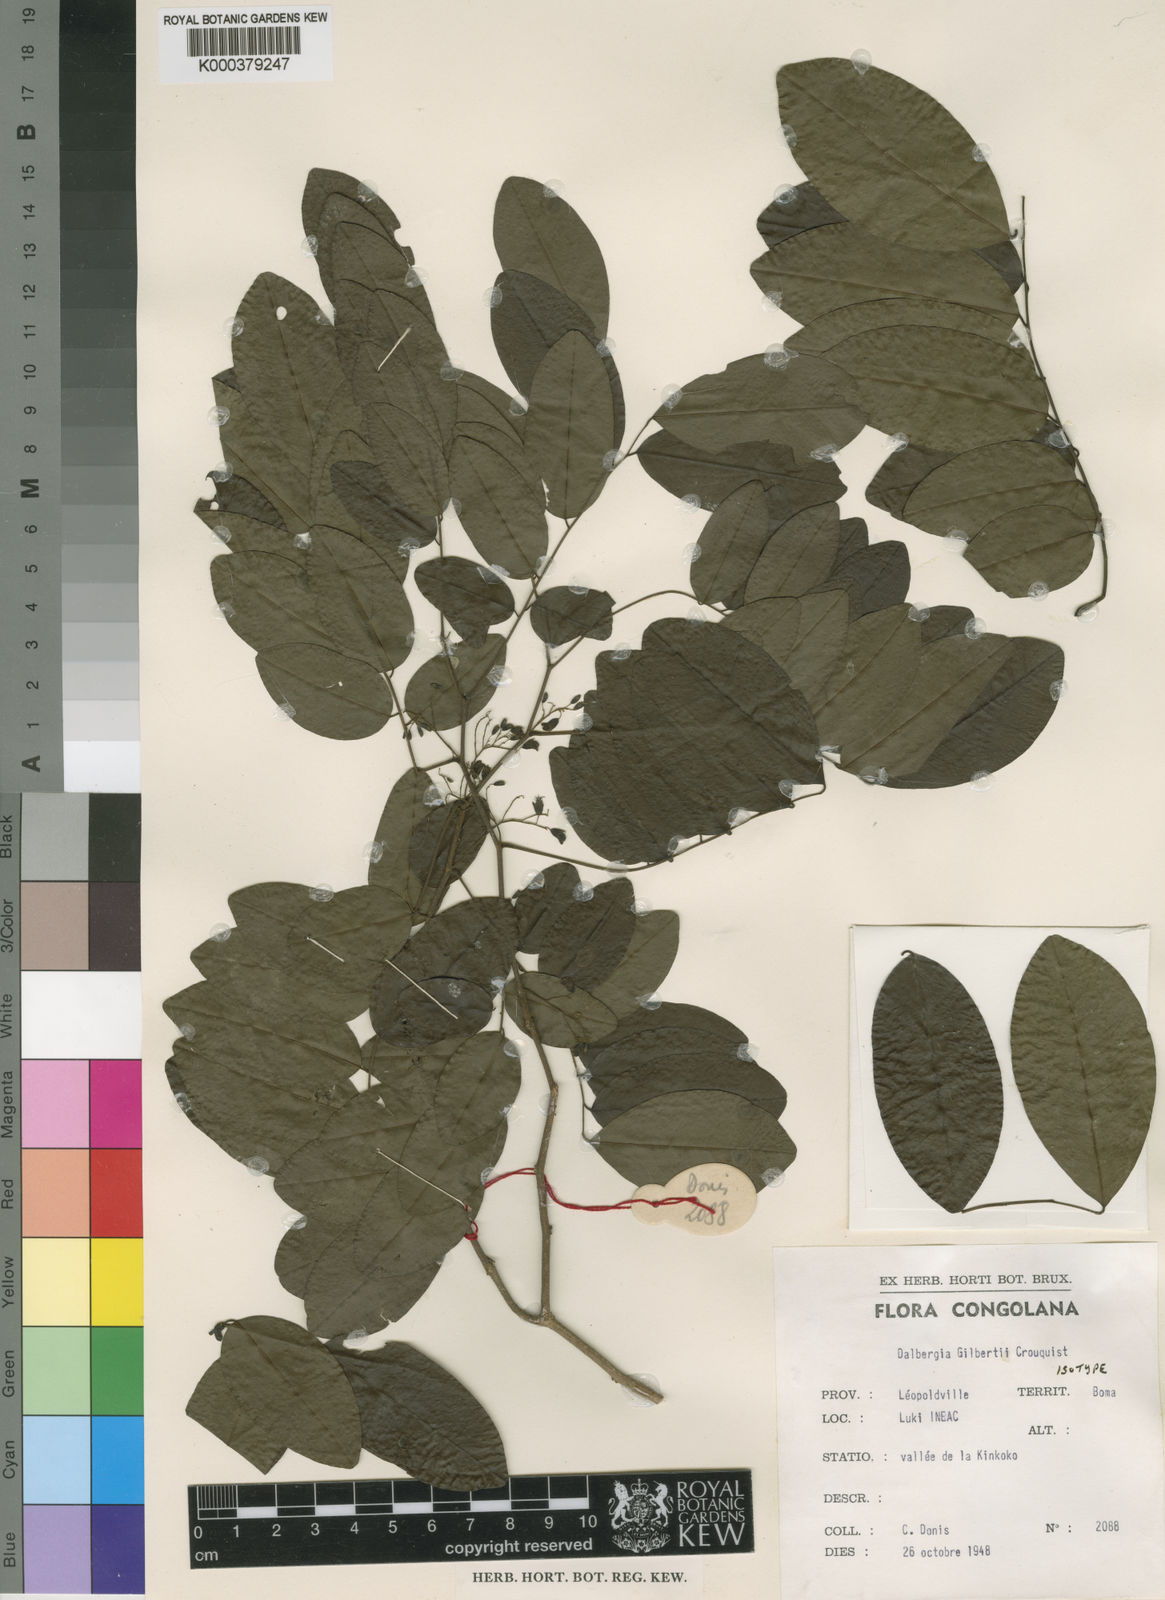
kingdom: Plantae
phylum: Tracheophyta
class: Magnoliopsida
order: Fabales
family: Fabaceae
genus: Dalbergia
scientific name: Dalbergia gilbertii
